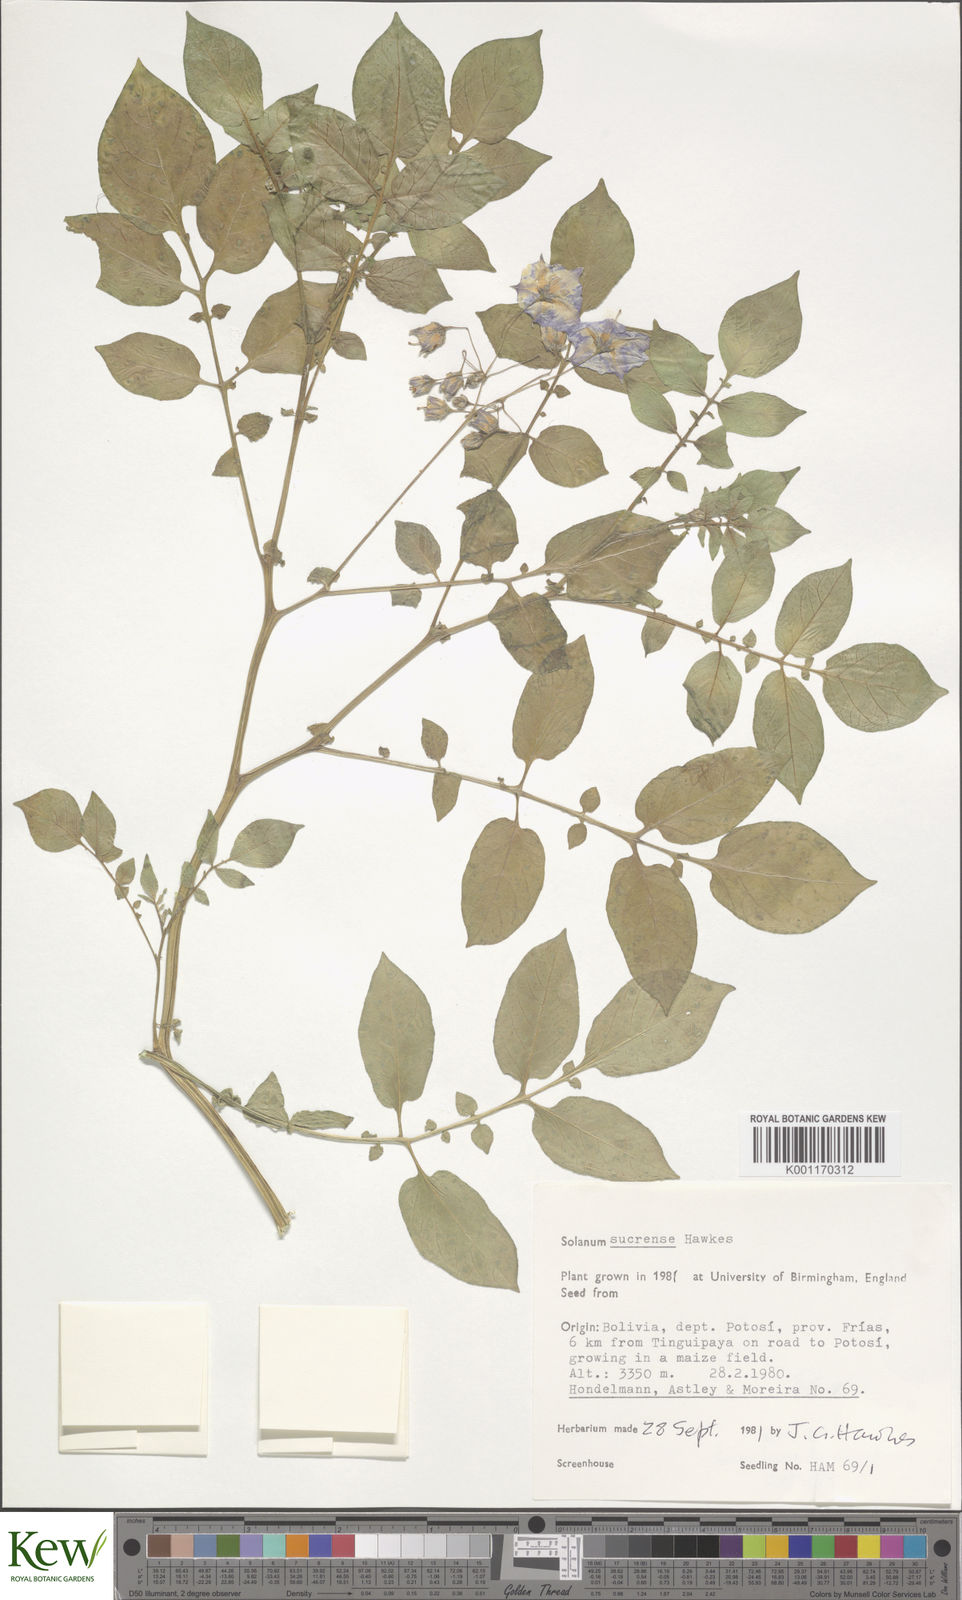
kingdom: Plantae
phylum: Tracheophyta
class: Magnoliopsida
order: Solanales
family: Solanaceae
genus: Solanum
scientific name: Solanum brevicaule
